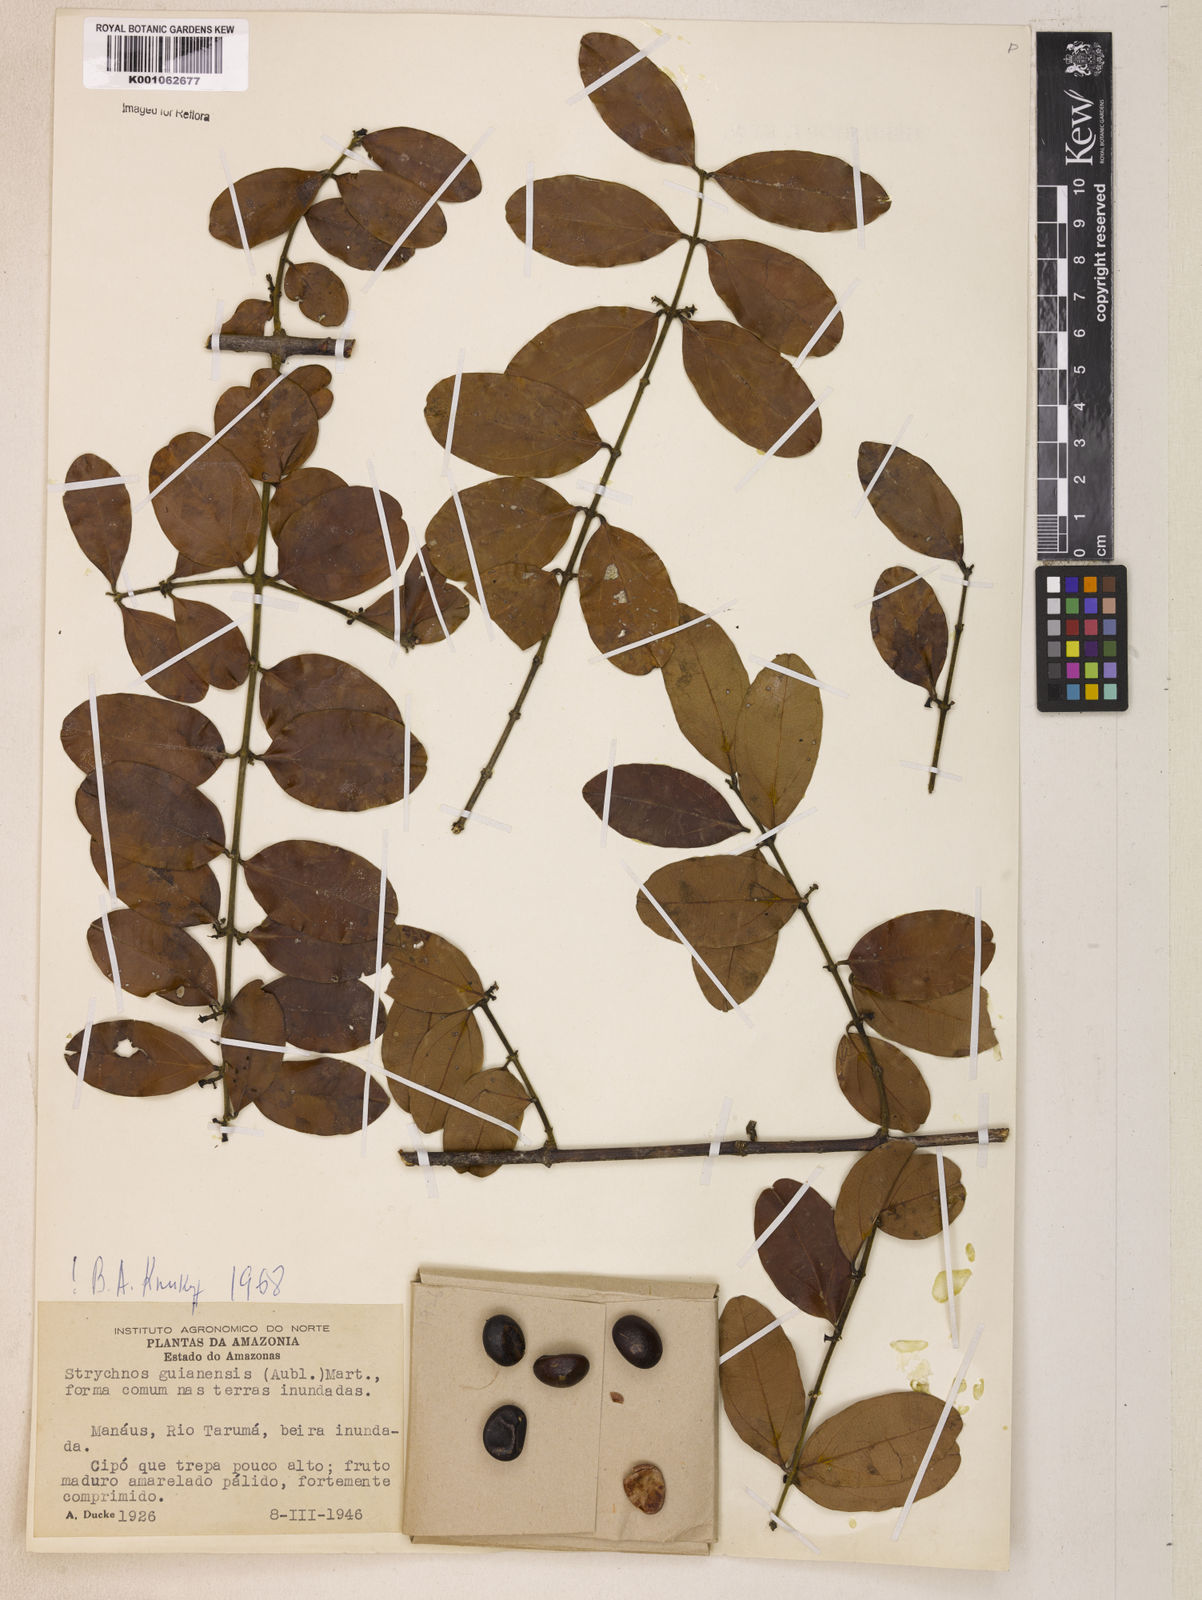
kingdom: Plantae
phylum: Tracheophyta
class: Magnoliopsida
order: Gentianales
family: Loganiaceae
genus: Strychnos
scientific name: Strychnos guianensis
